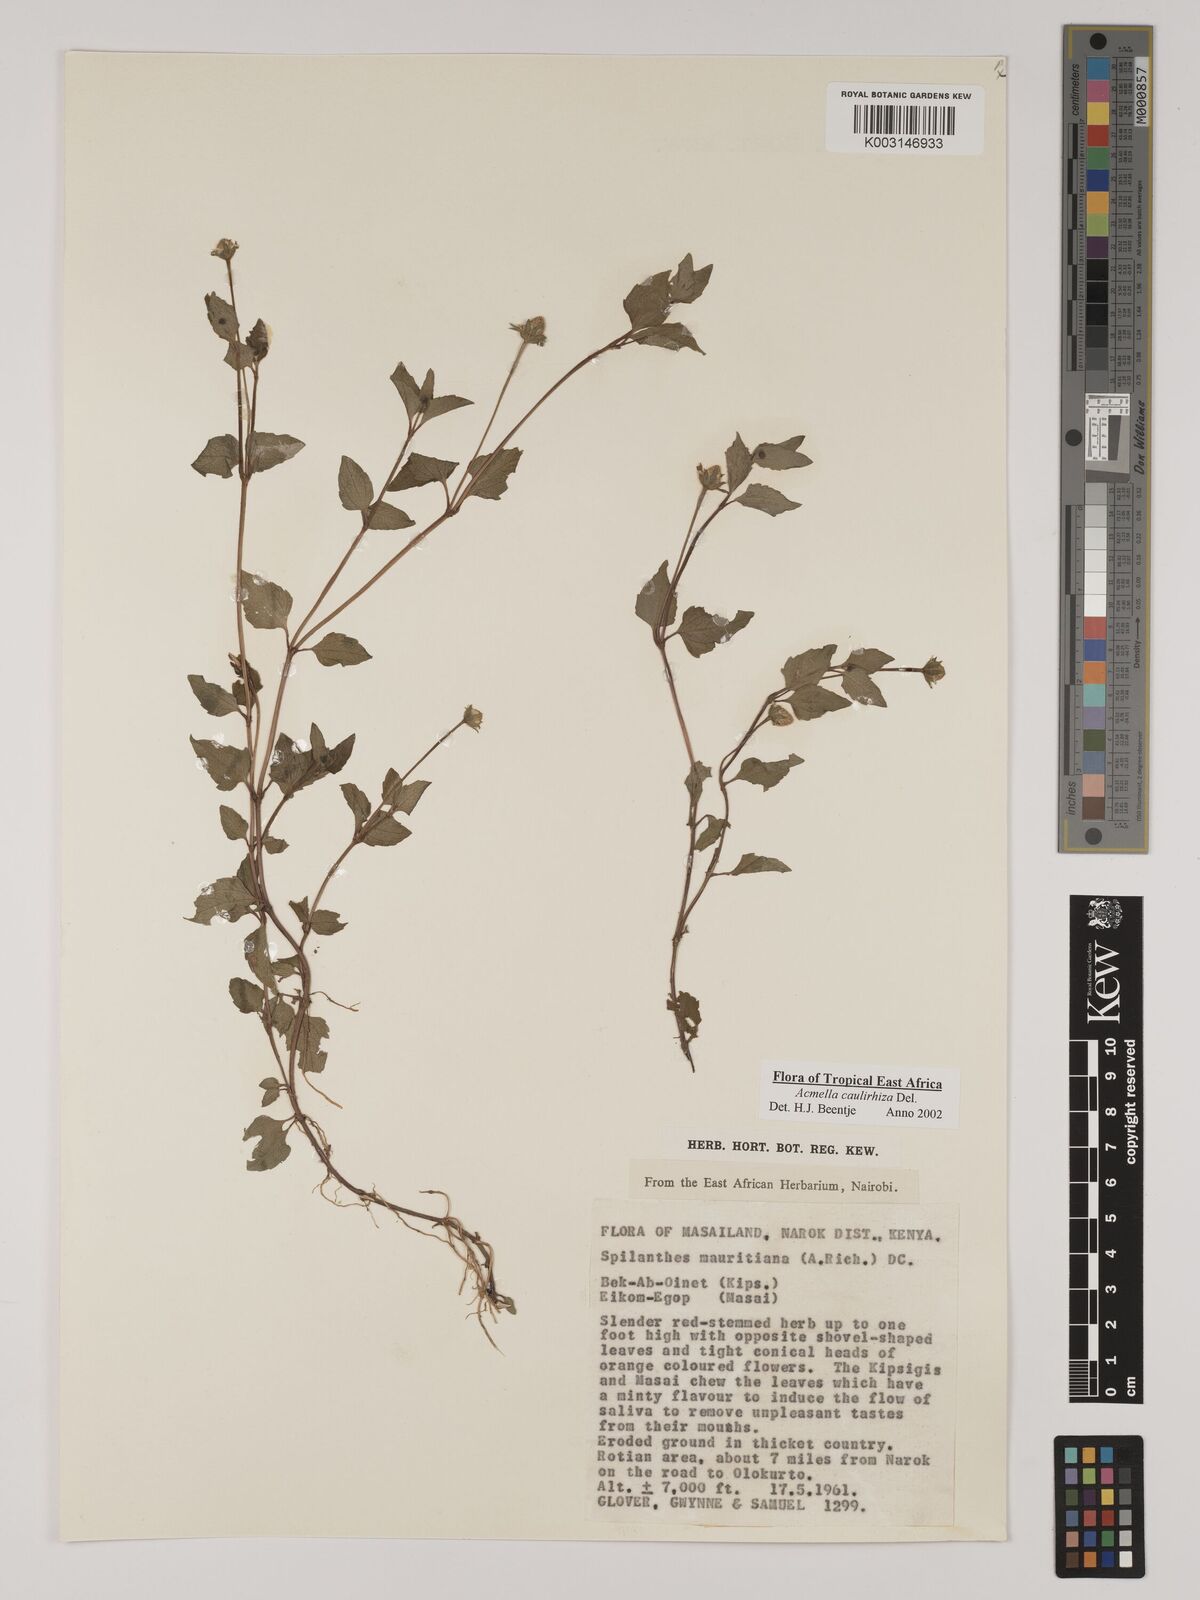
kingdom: Plantae
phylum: Tracheophyta
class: Magnoliopsida
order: Asterales
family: Asteraceae
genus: Acmella
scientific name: Acmella caulirhiza
